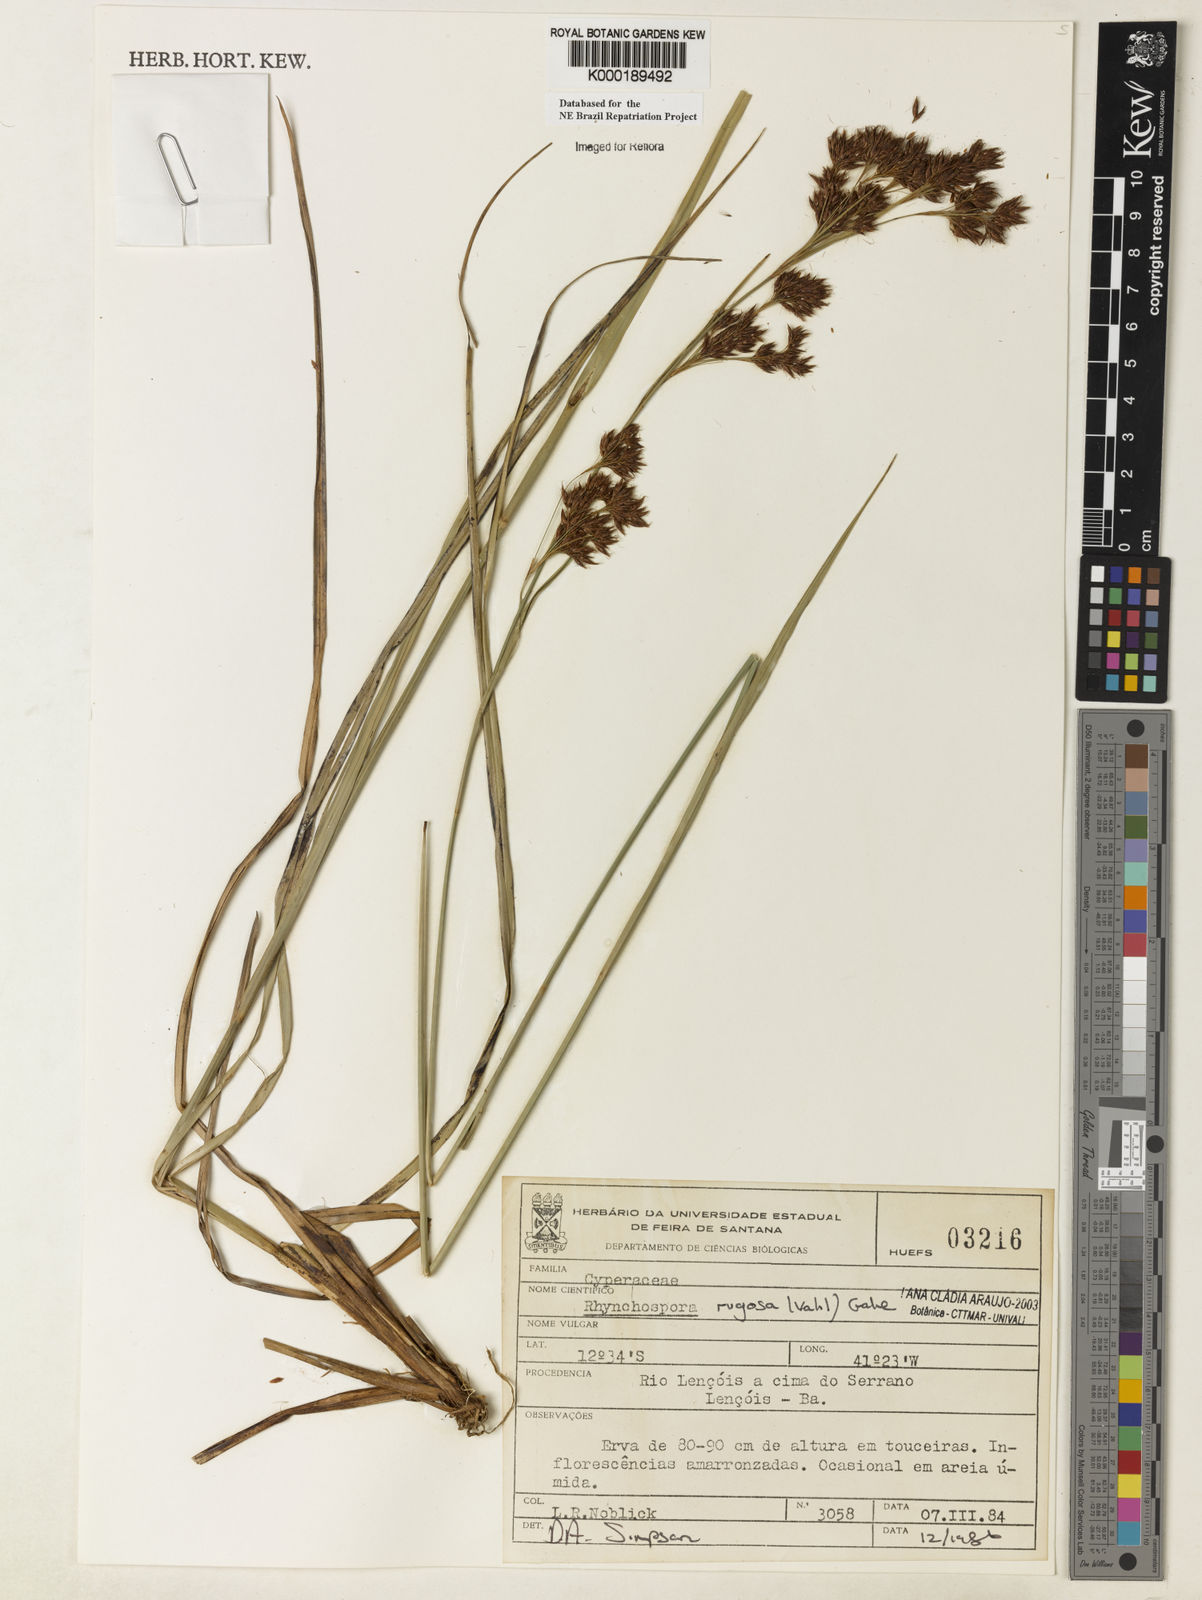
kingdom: Plantae
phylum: Tracheophyta
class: Liliopsida
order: Poales
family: Cyperaceae
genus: Rhynchospora
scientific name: Rhynchospora rugosa
